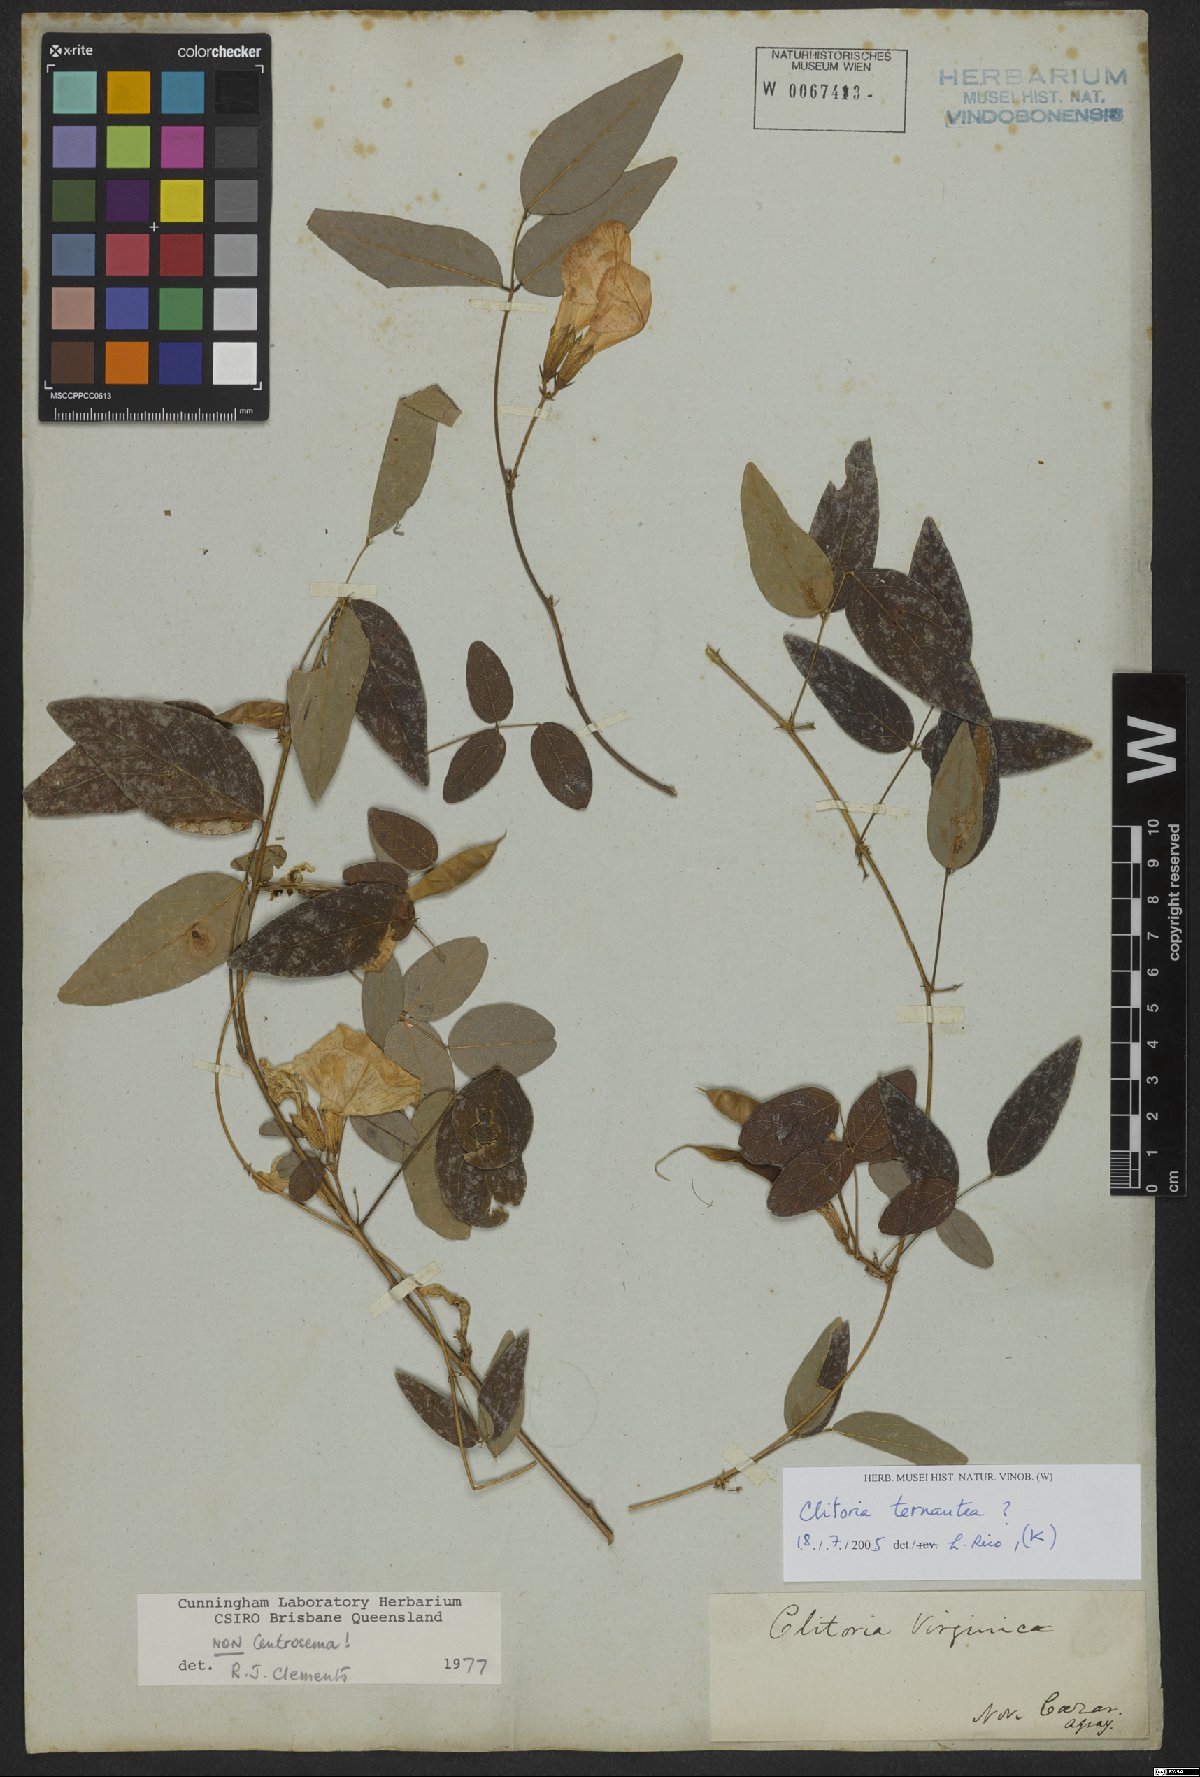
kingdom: Plantae
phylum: Tracheophyta
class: Magnoliopsida
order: Fabales
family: Fabaceae
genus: Clitoria
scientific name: Clitoria
